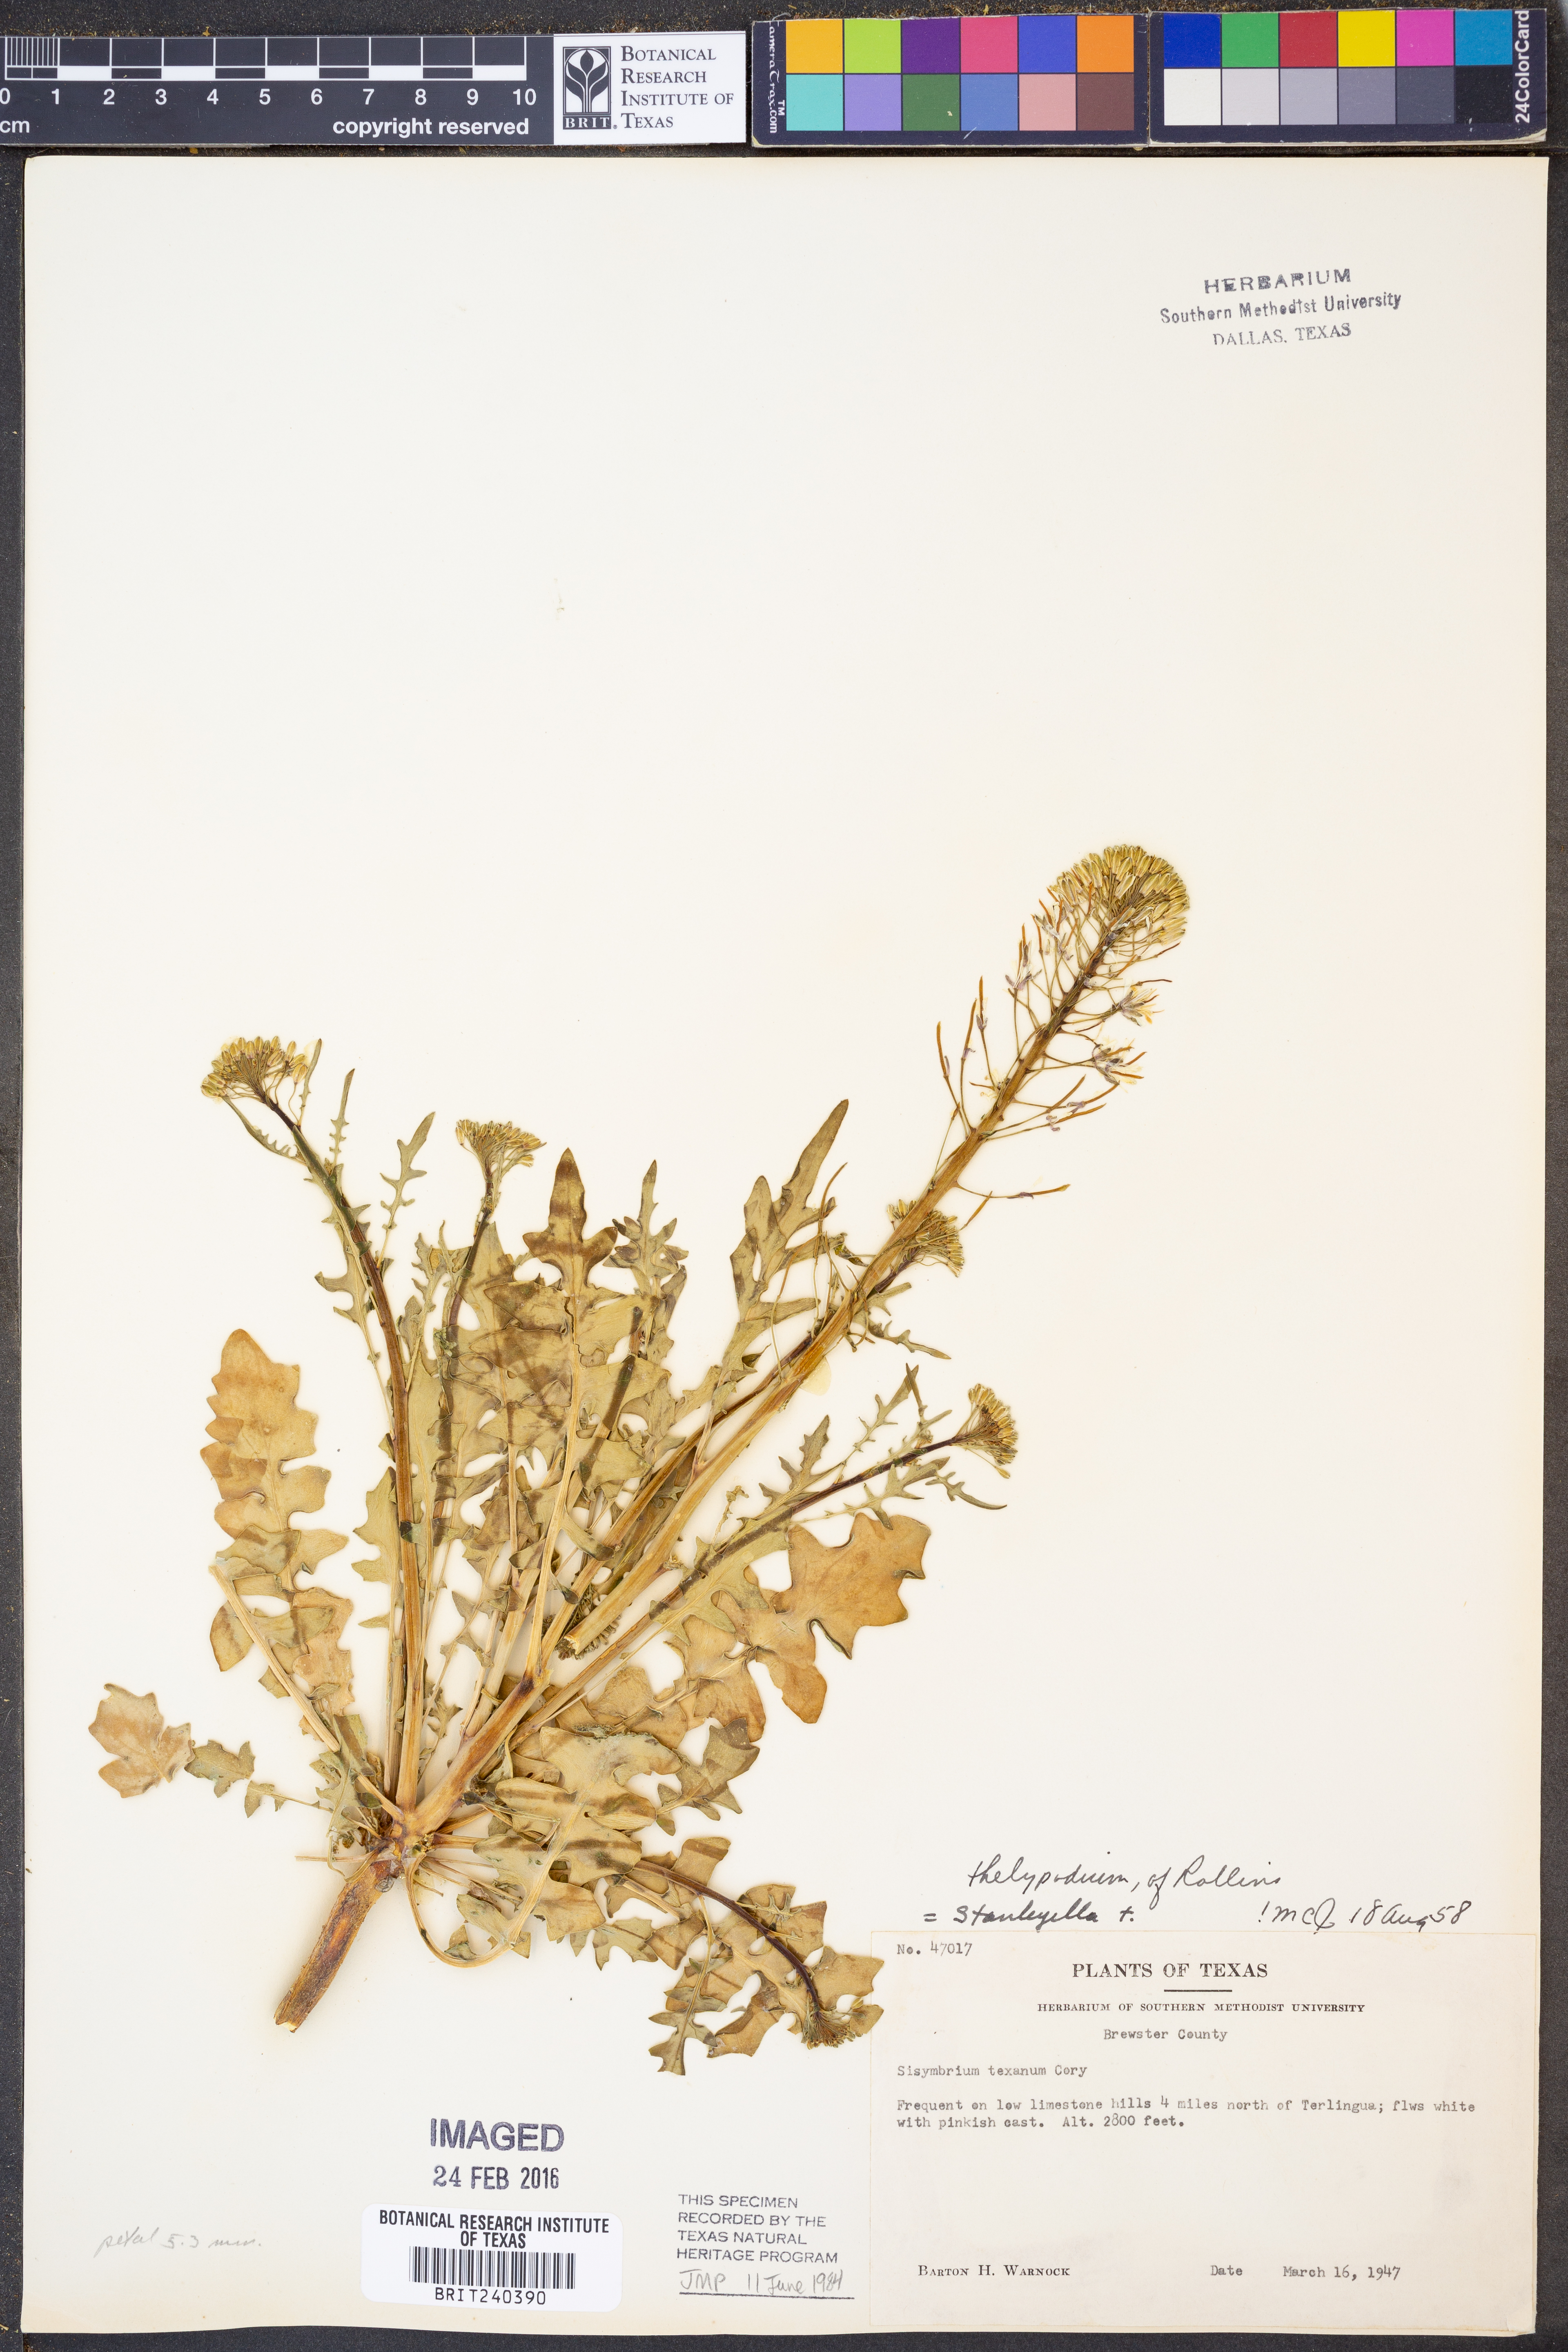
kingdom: Plantae
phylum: Tracheophyta
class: Magnoliopsida
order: Brassicales
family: Brassicaceae
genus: Thelypodium
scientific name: Thelypodium texanum
